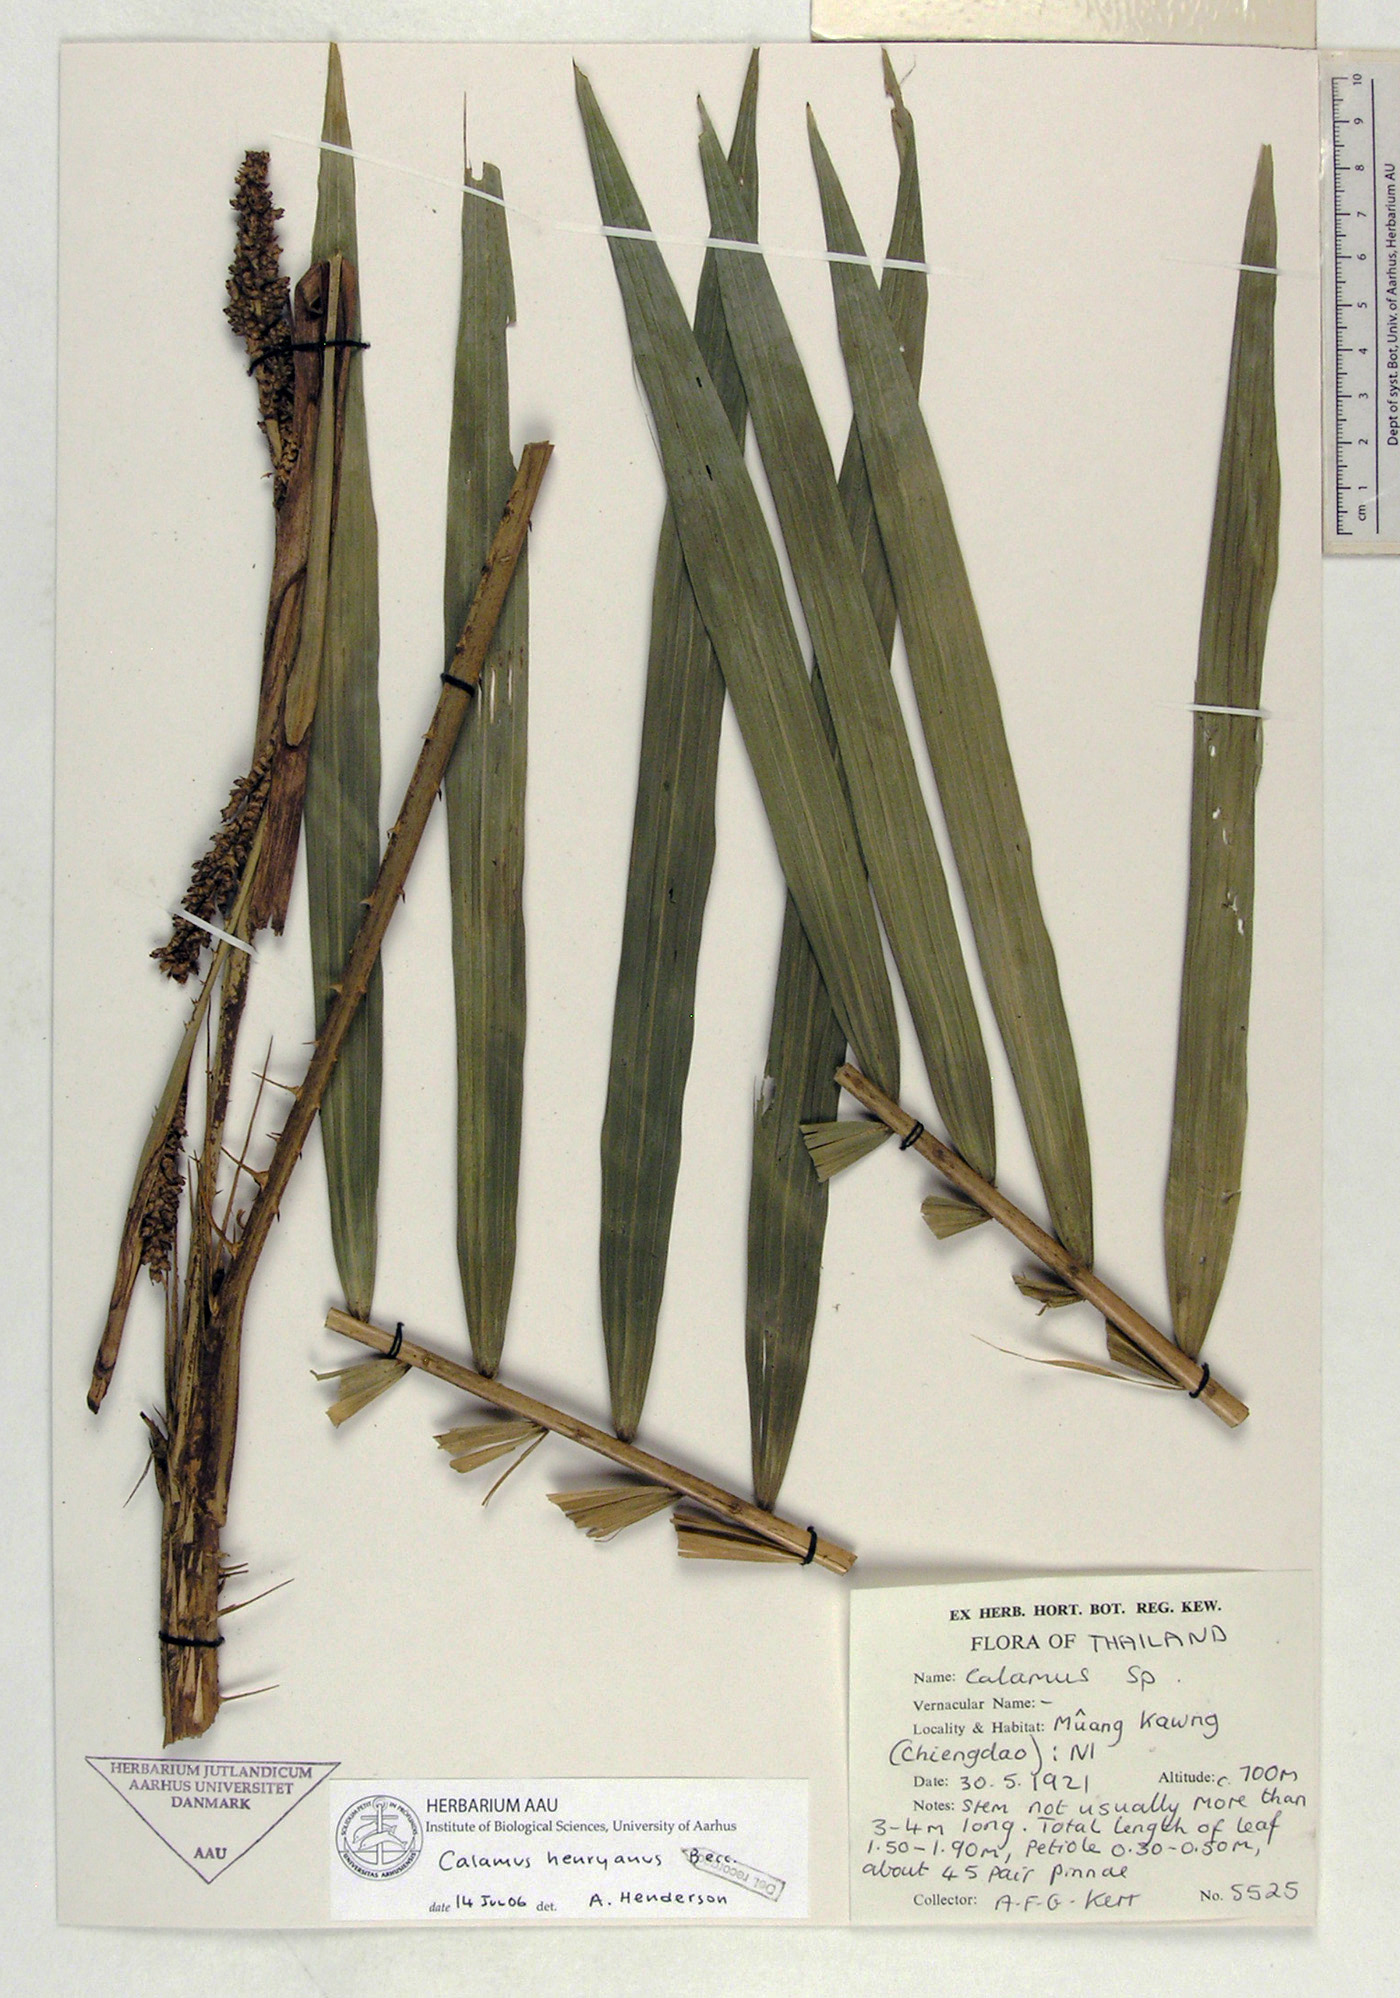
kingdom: Plantae
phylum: Tracheophyta
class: Liliopsida
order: Arecales
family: Arecaceae
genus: Calamus
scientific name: Calamus henryanus
